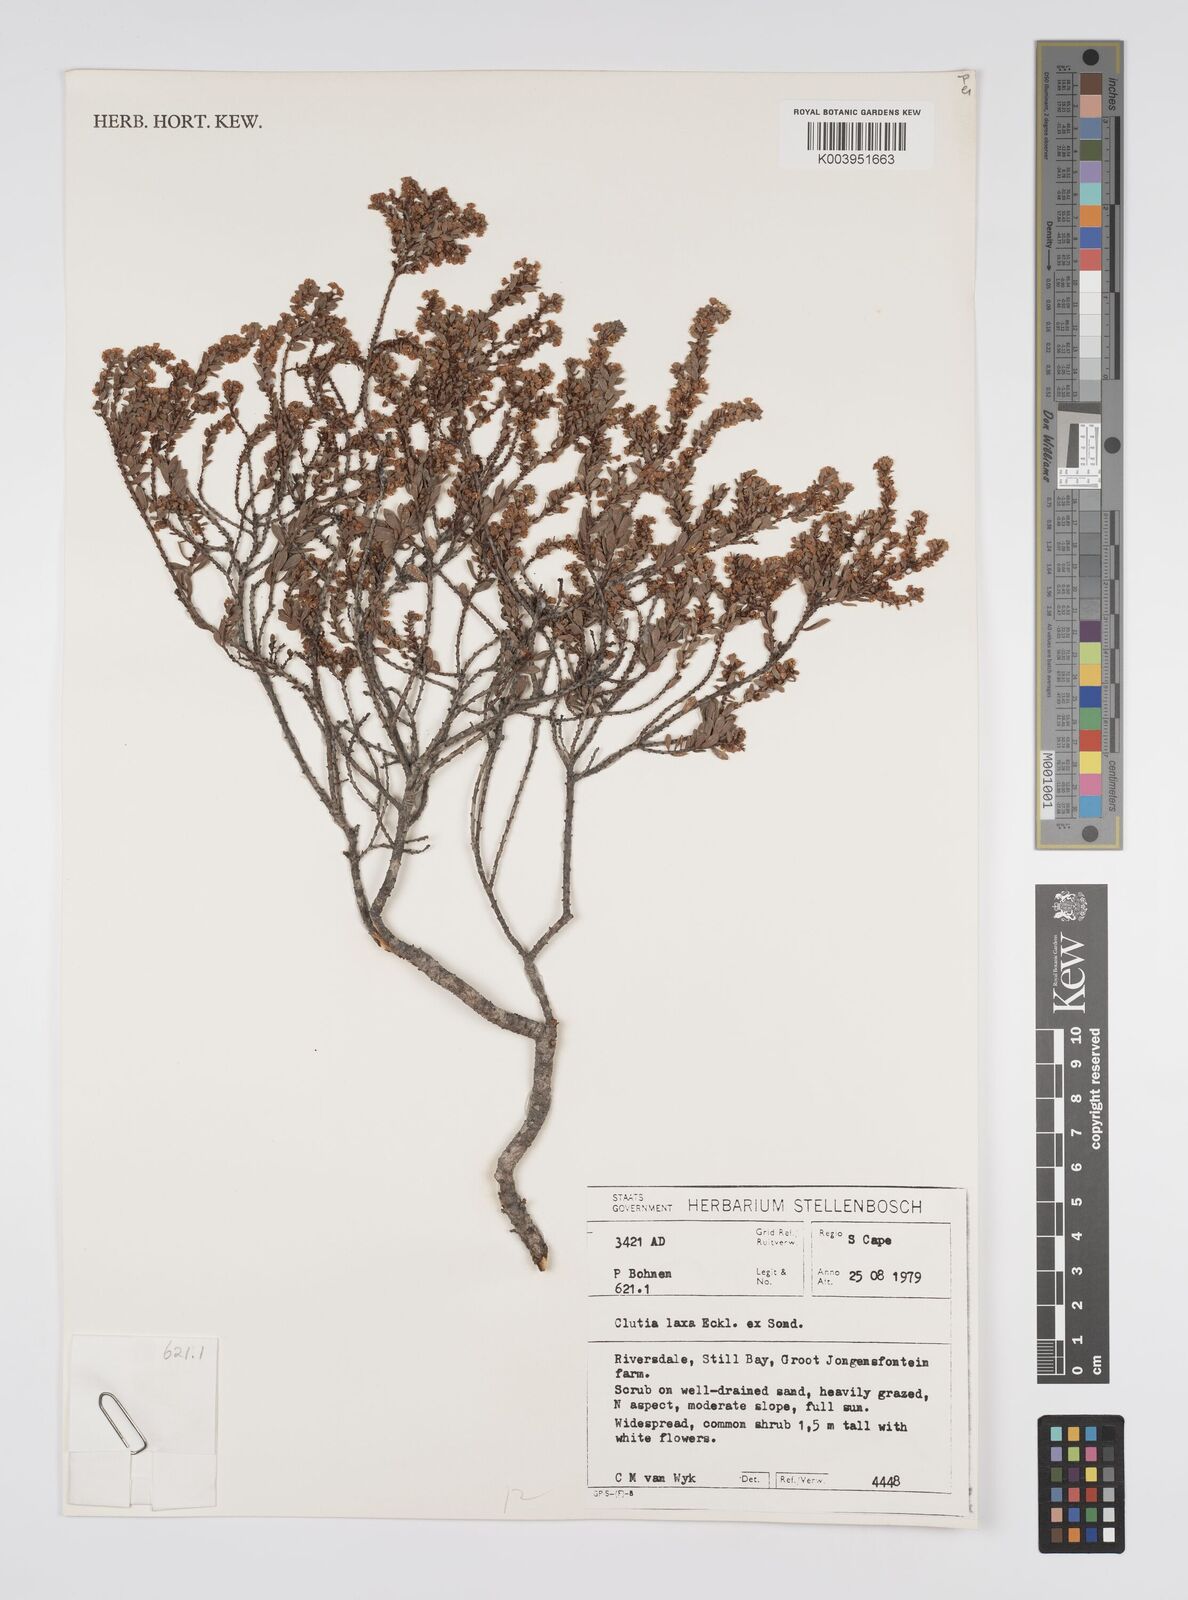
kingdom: Plantae
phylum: Tracheophyta
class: Magnoliopsida
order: Malpighiales
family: Peraceae
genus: Clutia
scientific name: Clutia laxa
